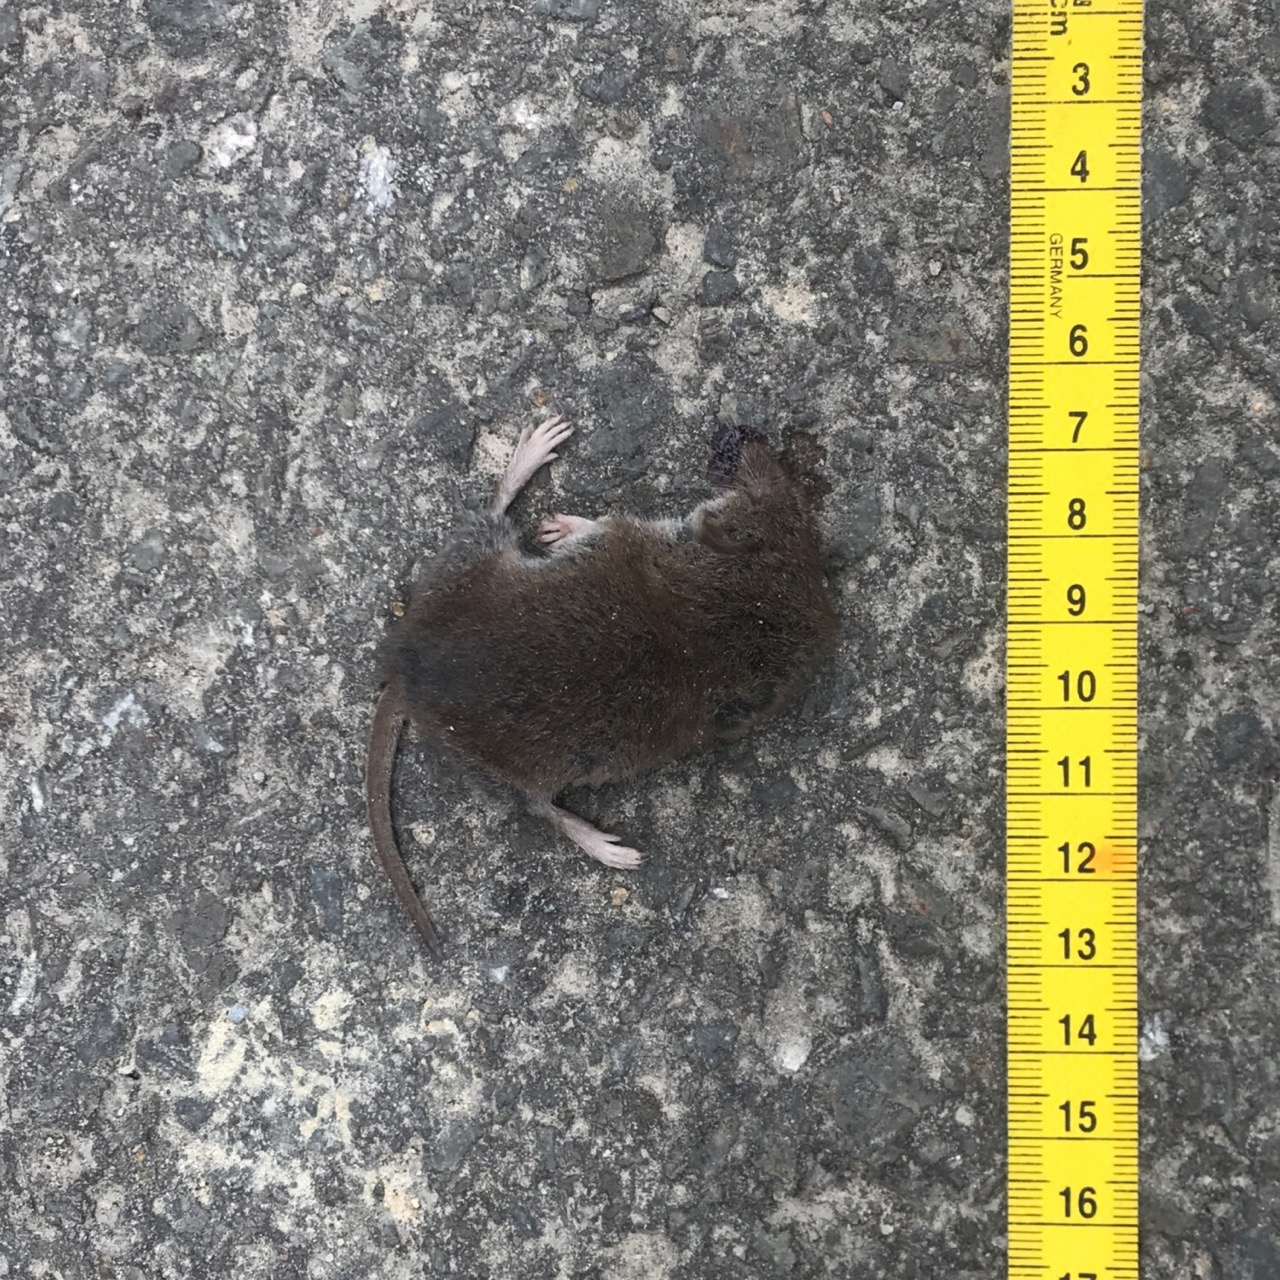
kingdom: Animalia
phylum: Chordata
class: Mammalia
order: Soricomorpha
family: Soricidae
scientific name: Soricidae
